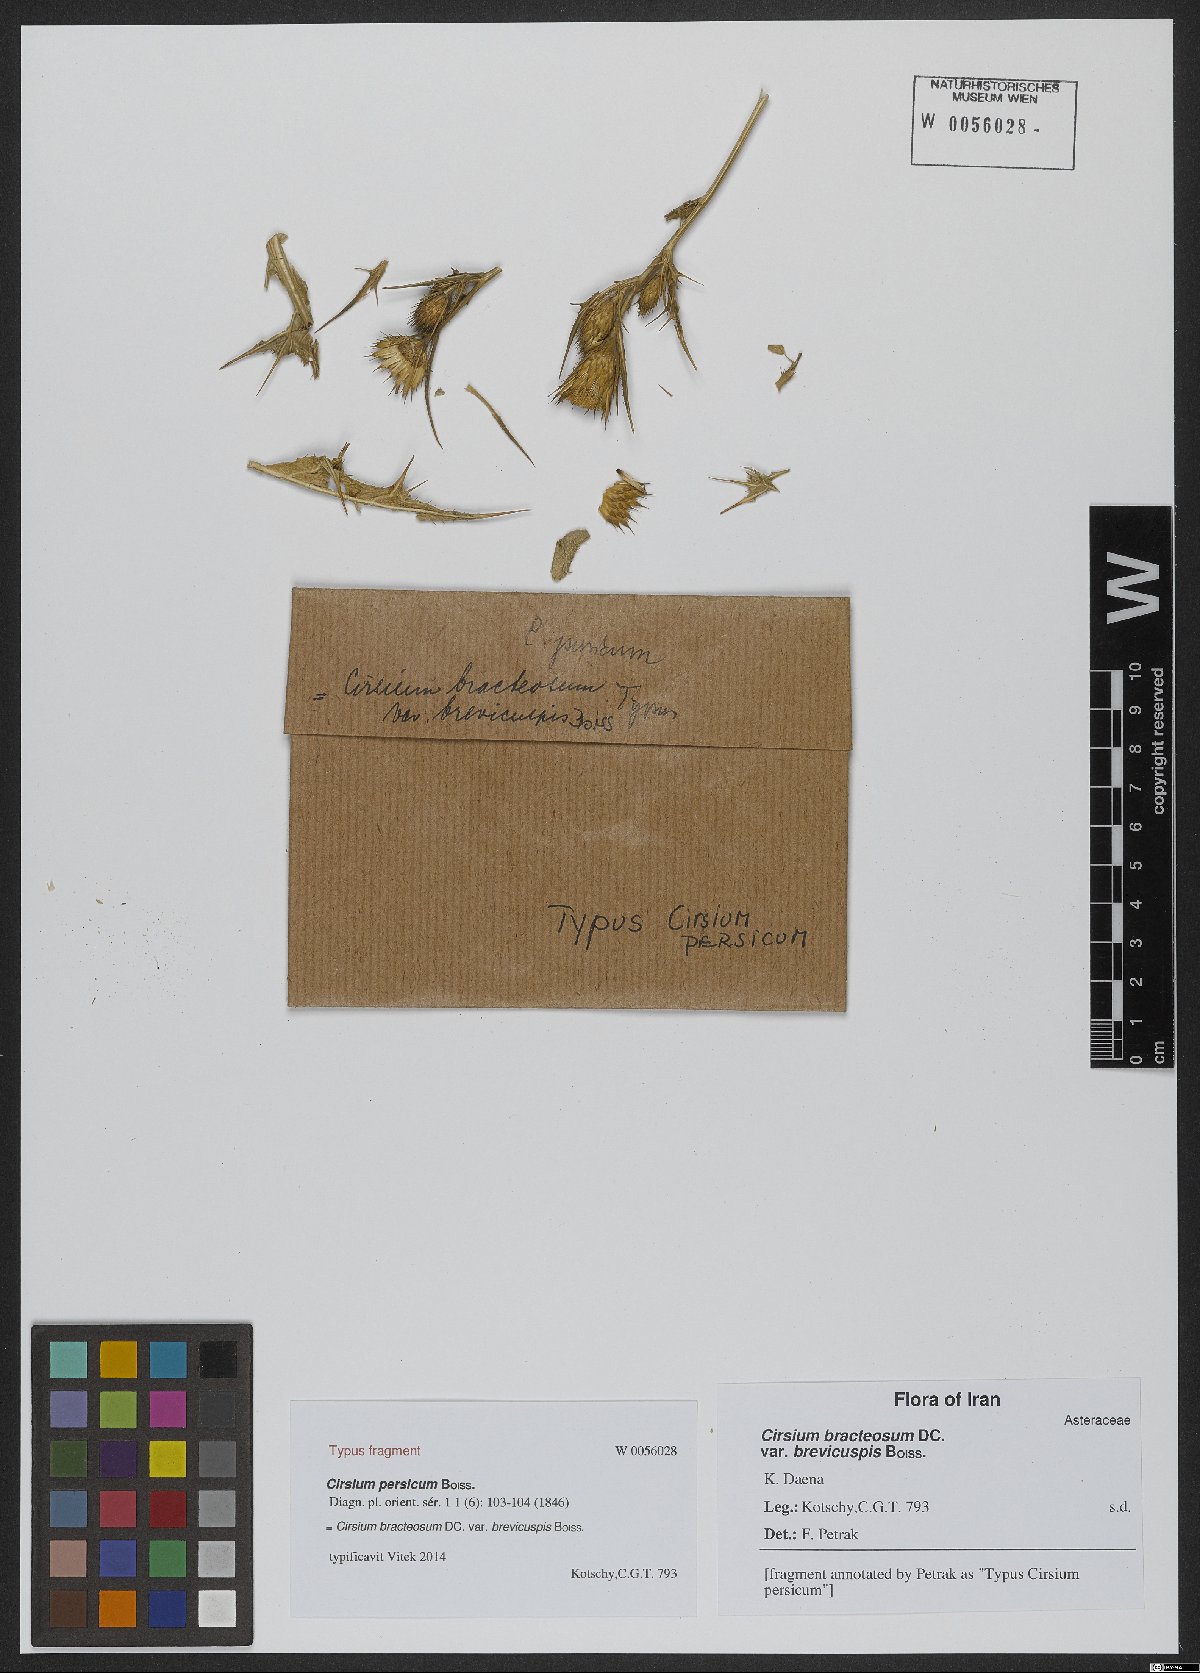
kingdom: Plantae
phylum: Tracheophyta
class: Magnoliopsida
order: Asterales
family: Asteraceae
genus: Lophiolepis
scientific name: Lophiolepis bracteosa
